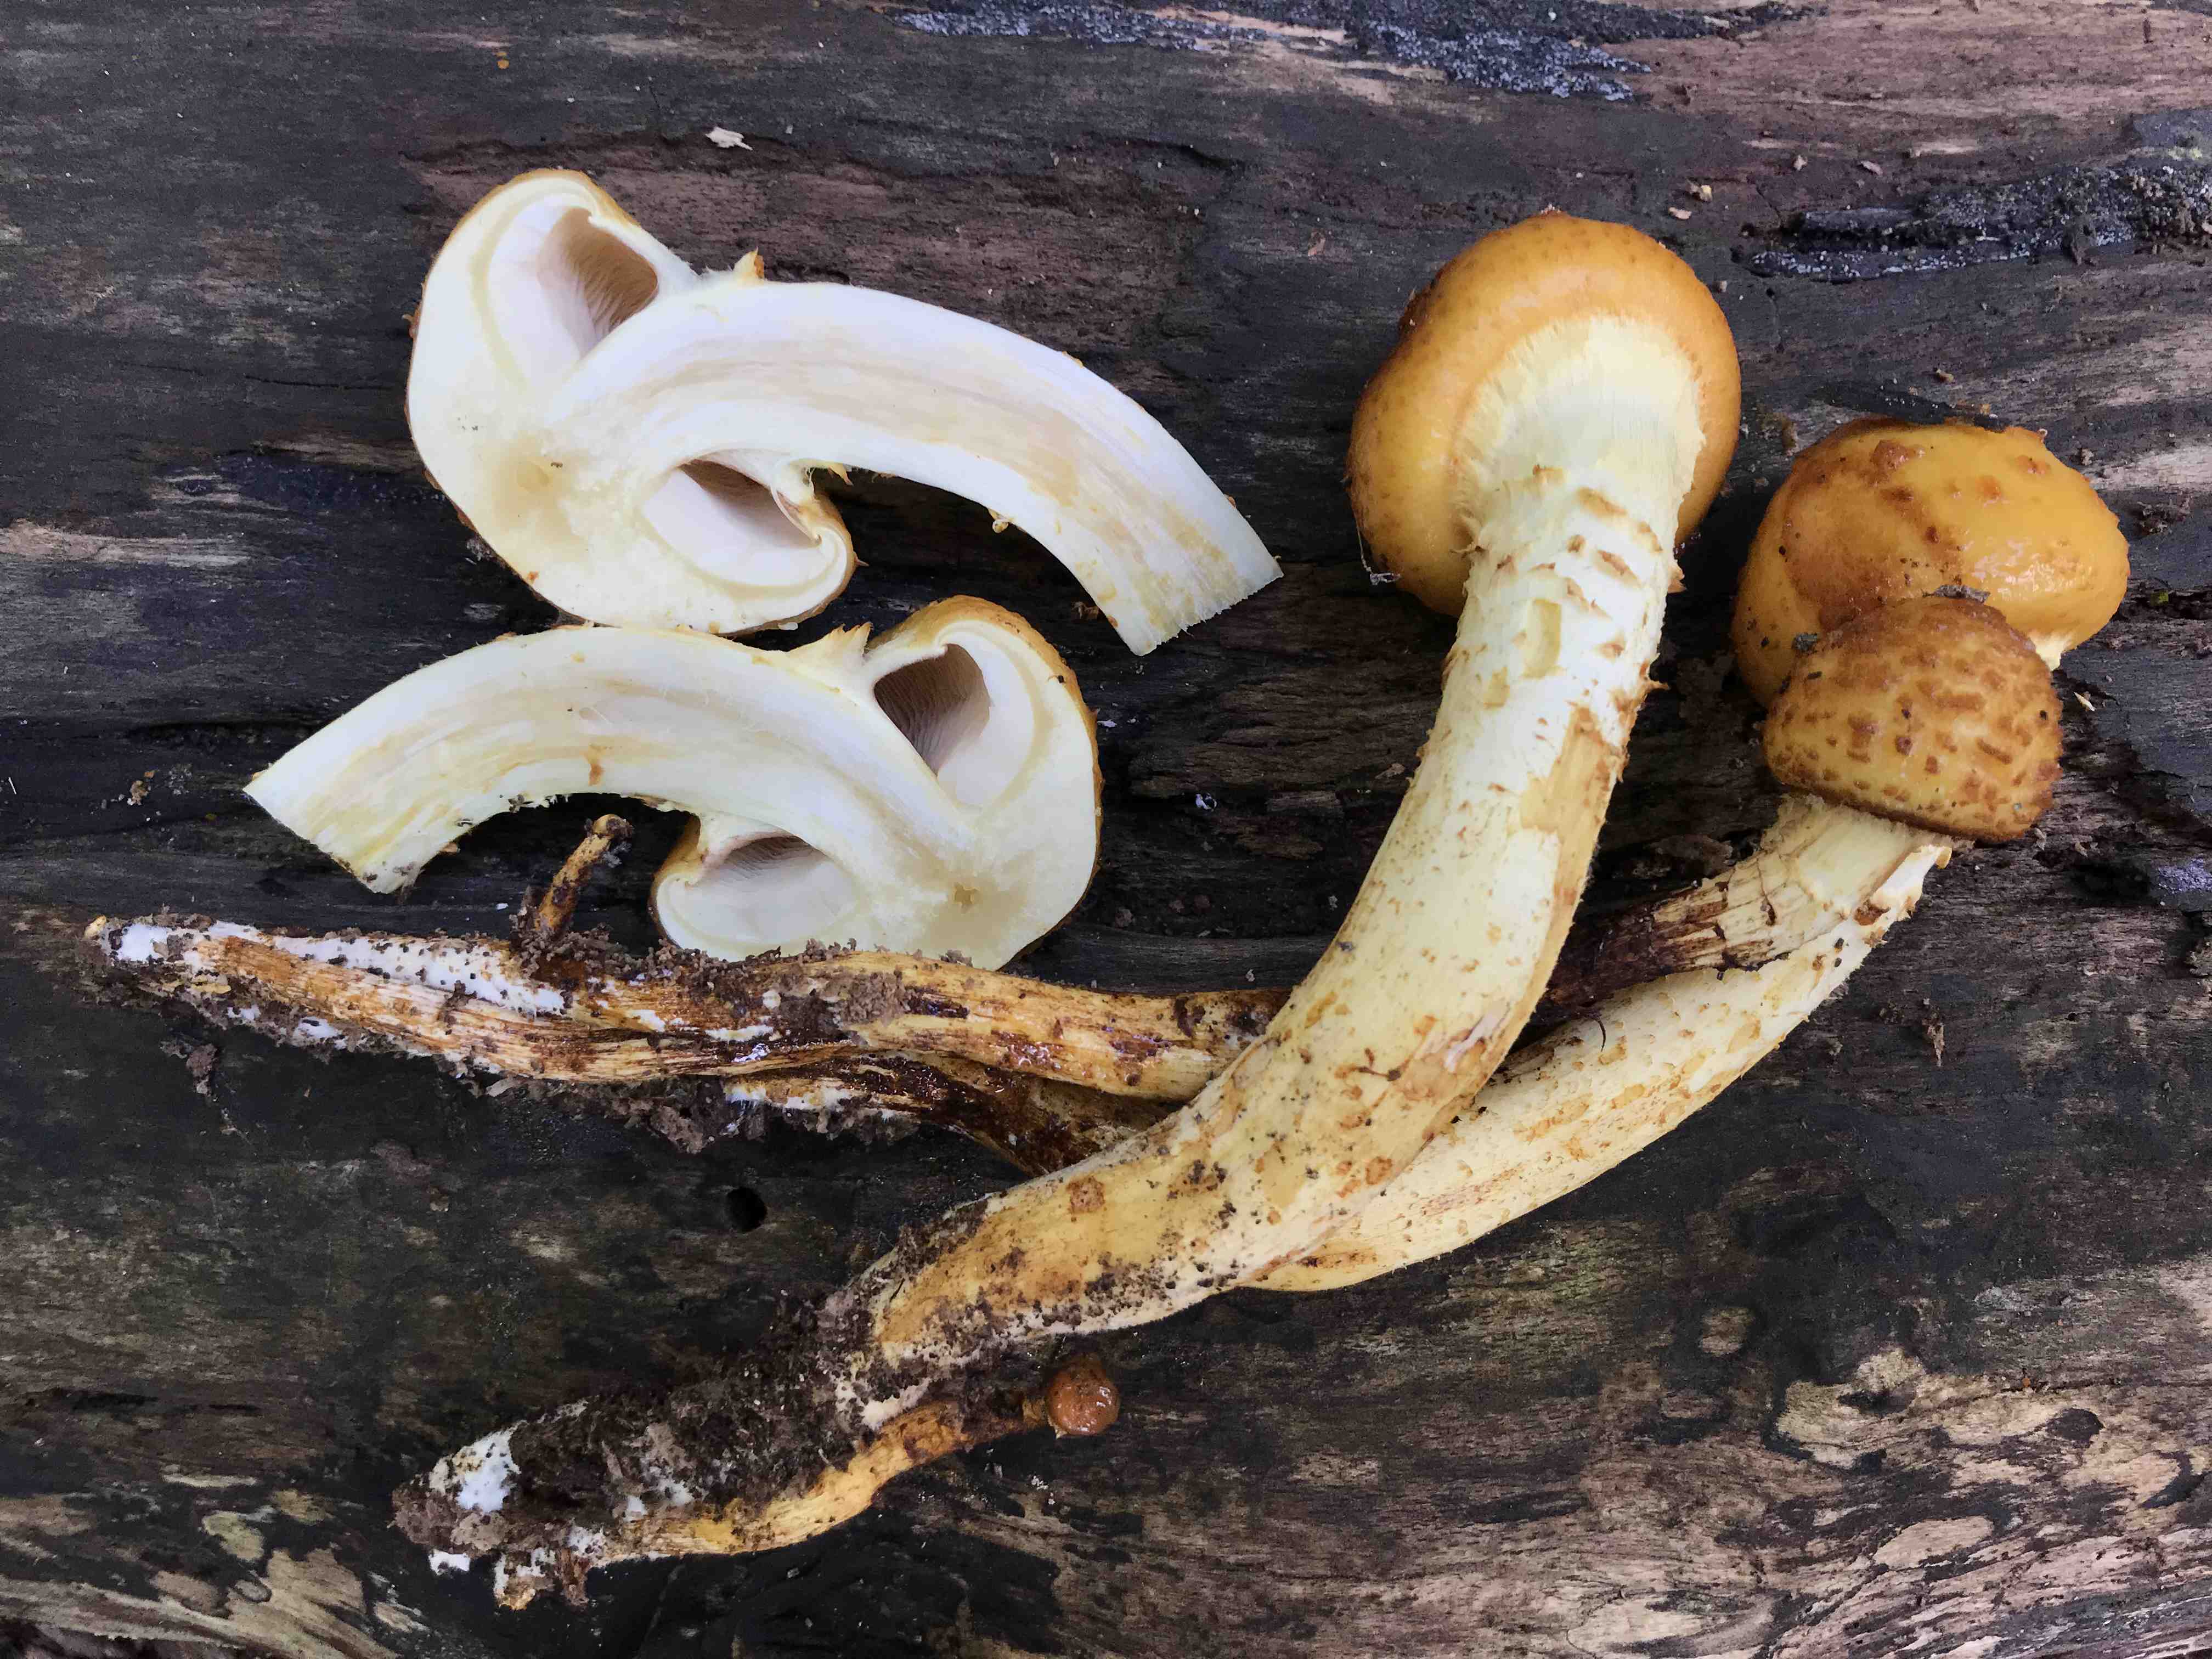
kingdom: Fungi
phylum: Basidiomycota
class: Agaricomycetes
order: Agaricales
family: Strophariaceae
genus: Pholiota
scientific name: Pholiota adiposa
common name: højtsiddende skælhat
